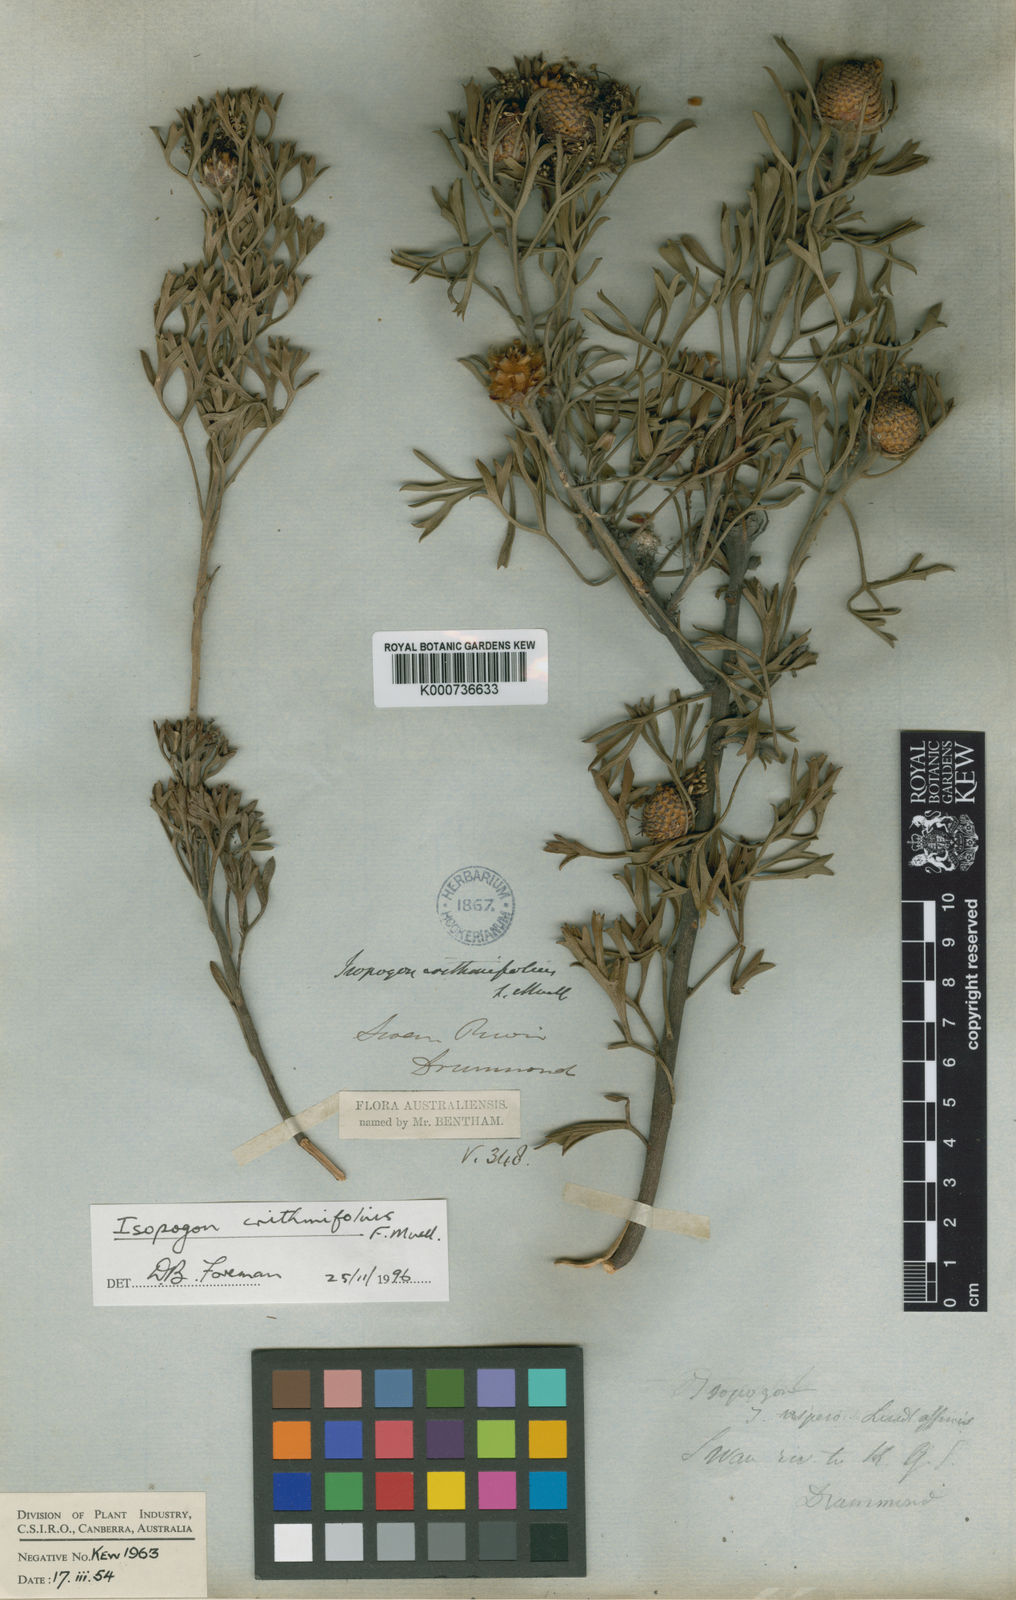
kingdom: Plantae
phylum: Tracheophyta
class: Magnoliopsida
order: Proteales
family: Proteaceae
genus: Isopogon
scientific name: Isopogon crithmifolius
